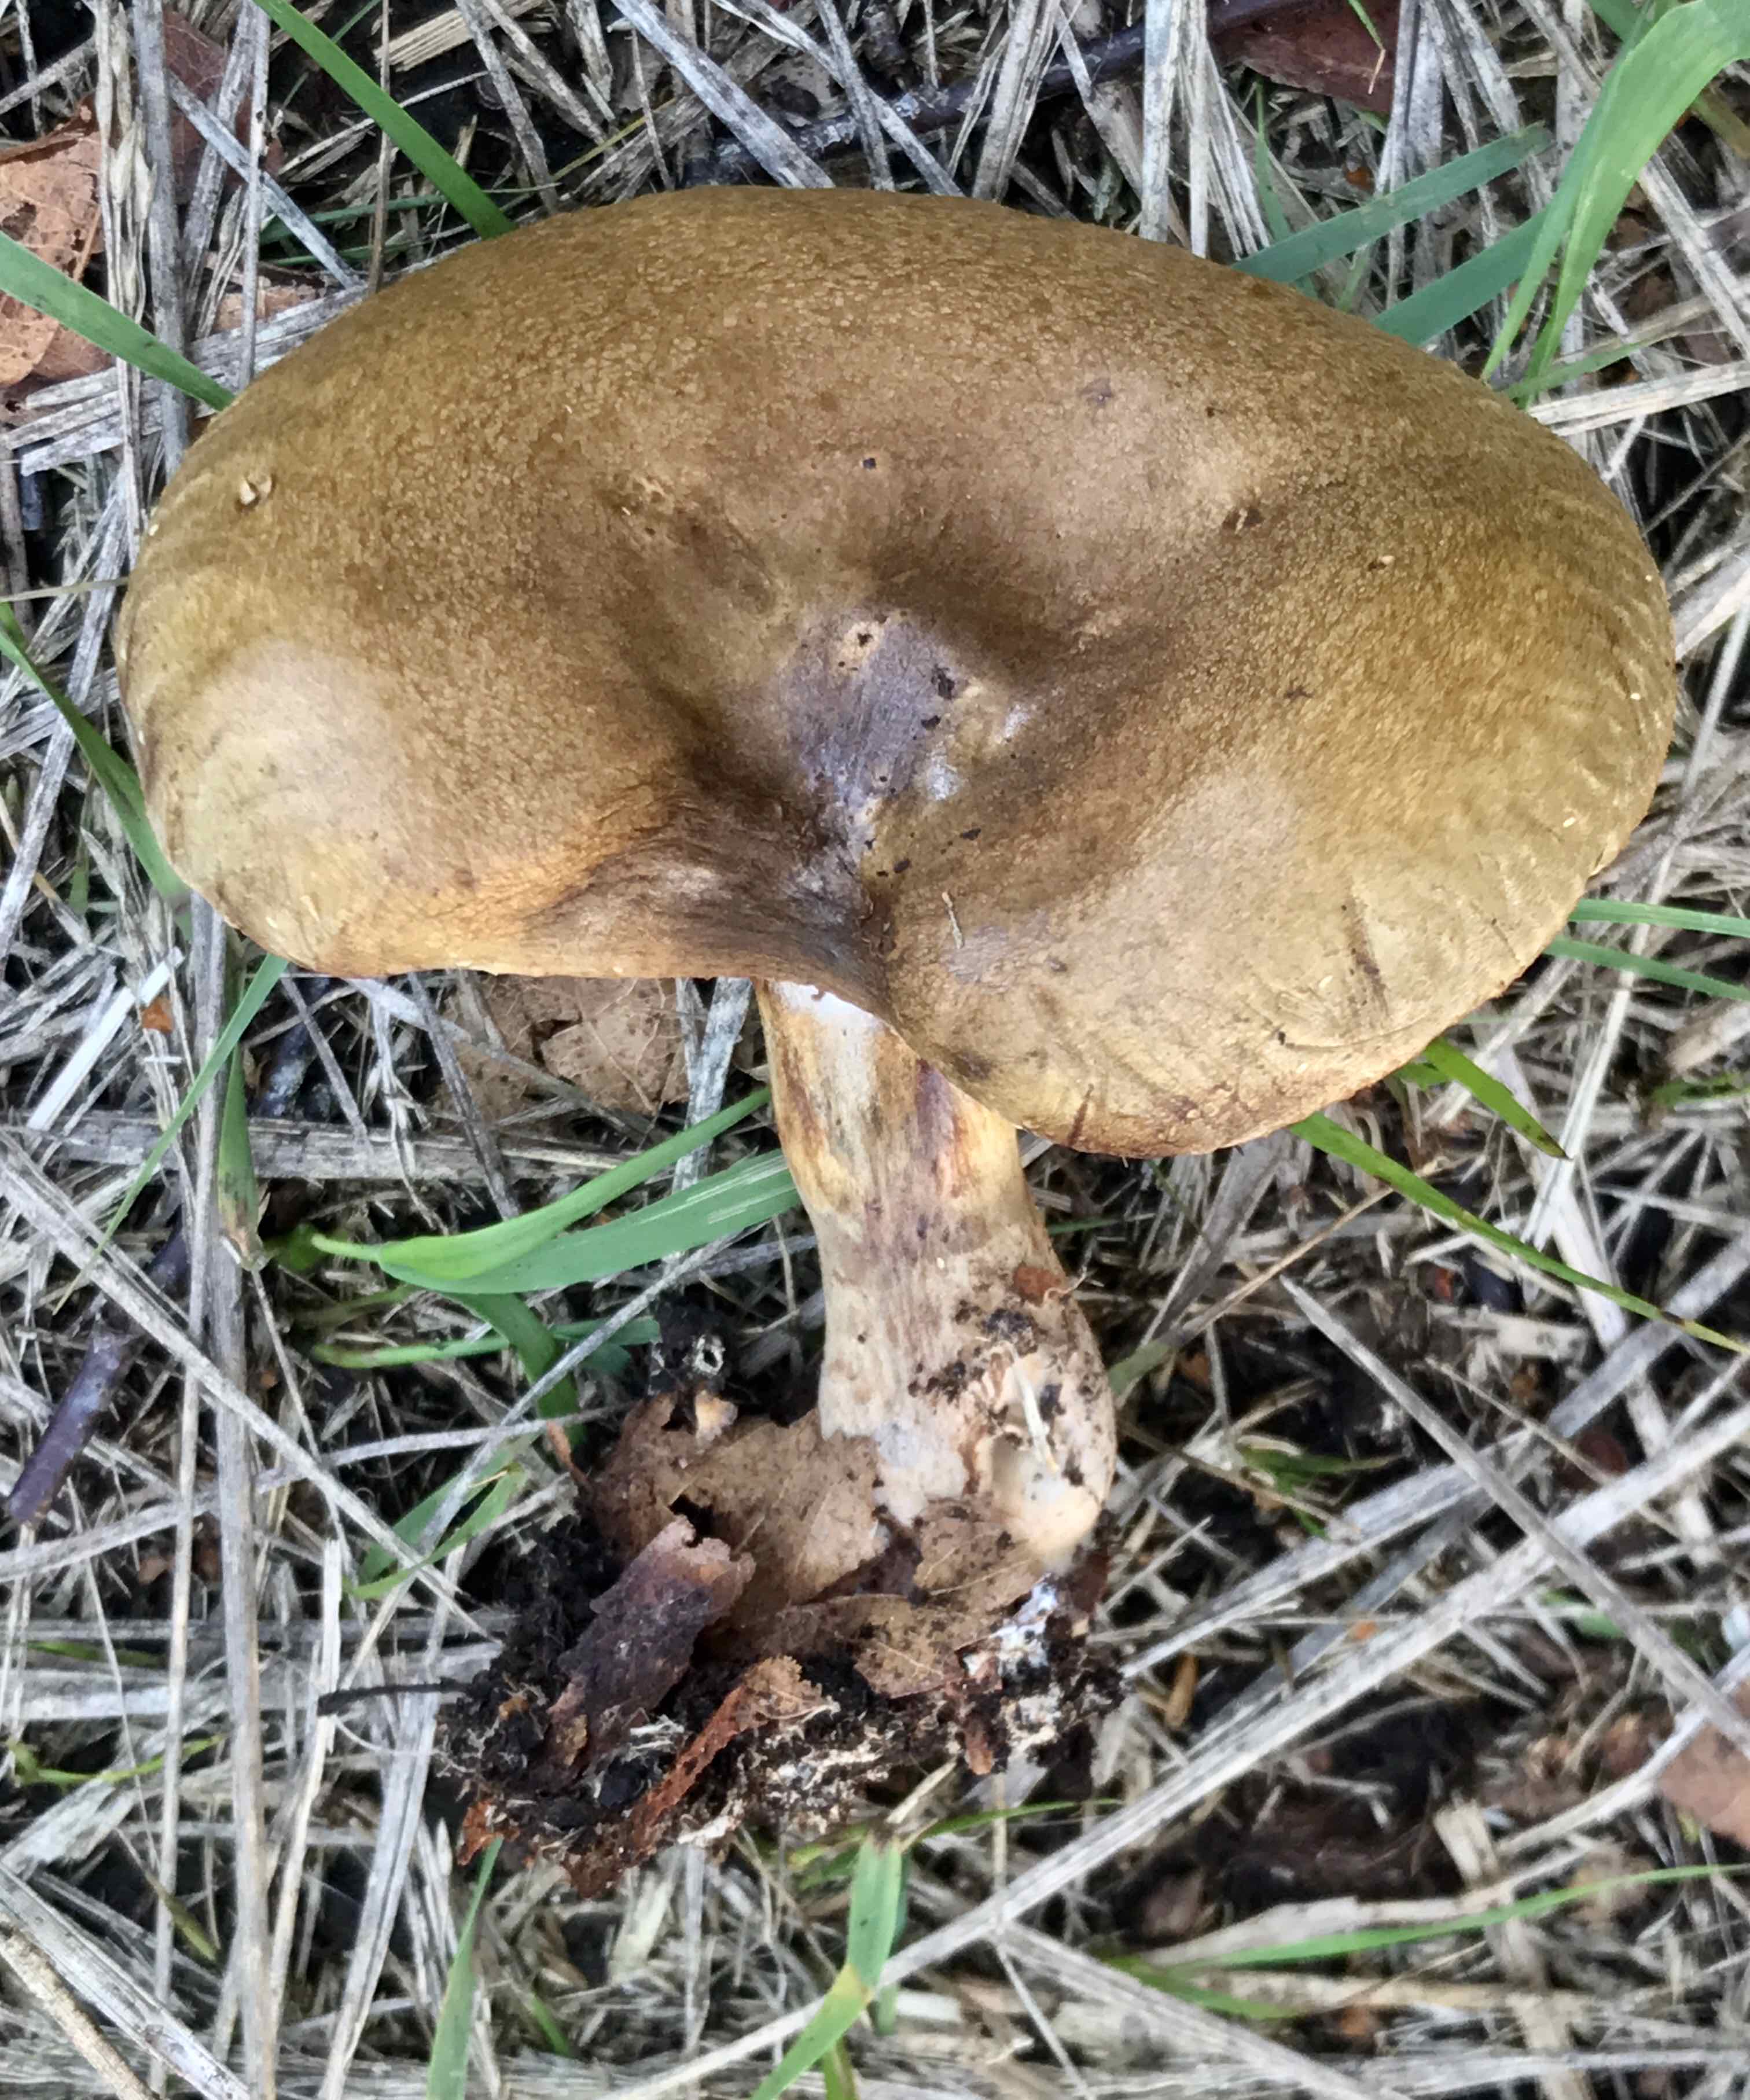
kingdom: Fungi
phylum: Basidiomycota
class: Agaricomycetes
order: Boletales
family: Paxillaceae
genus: Paxillus
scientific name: Paxillus involutus
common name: almindelig netbladhat
